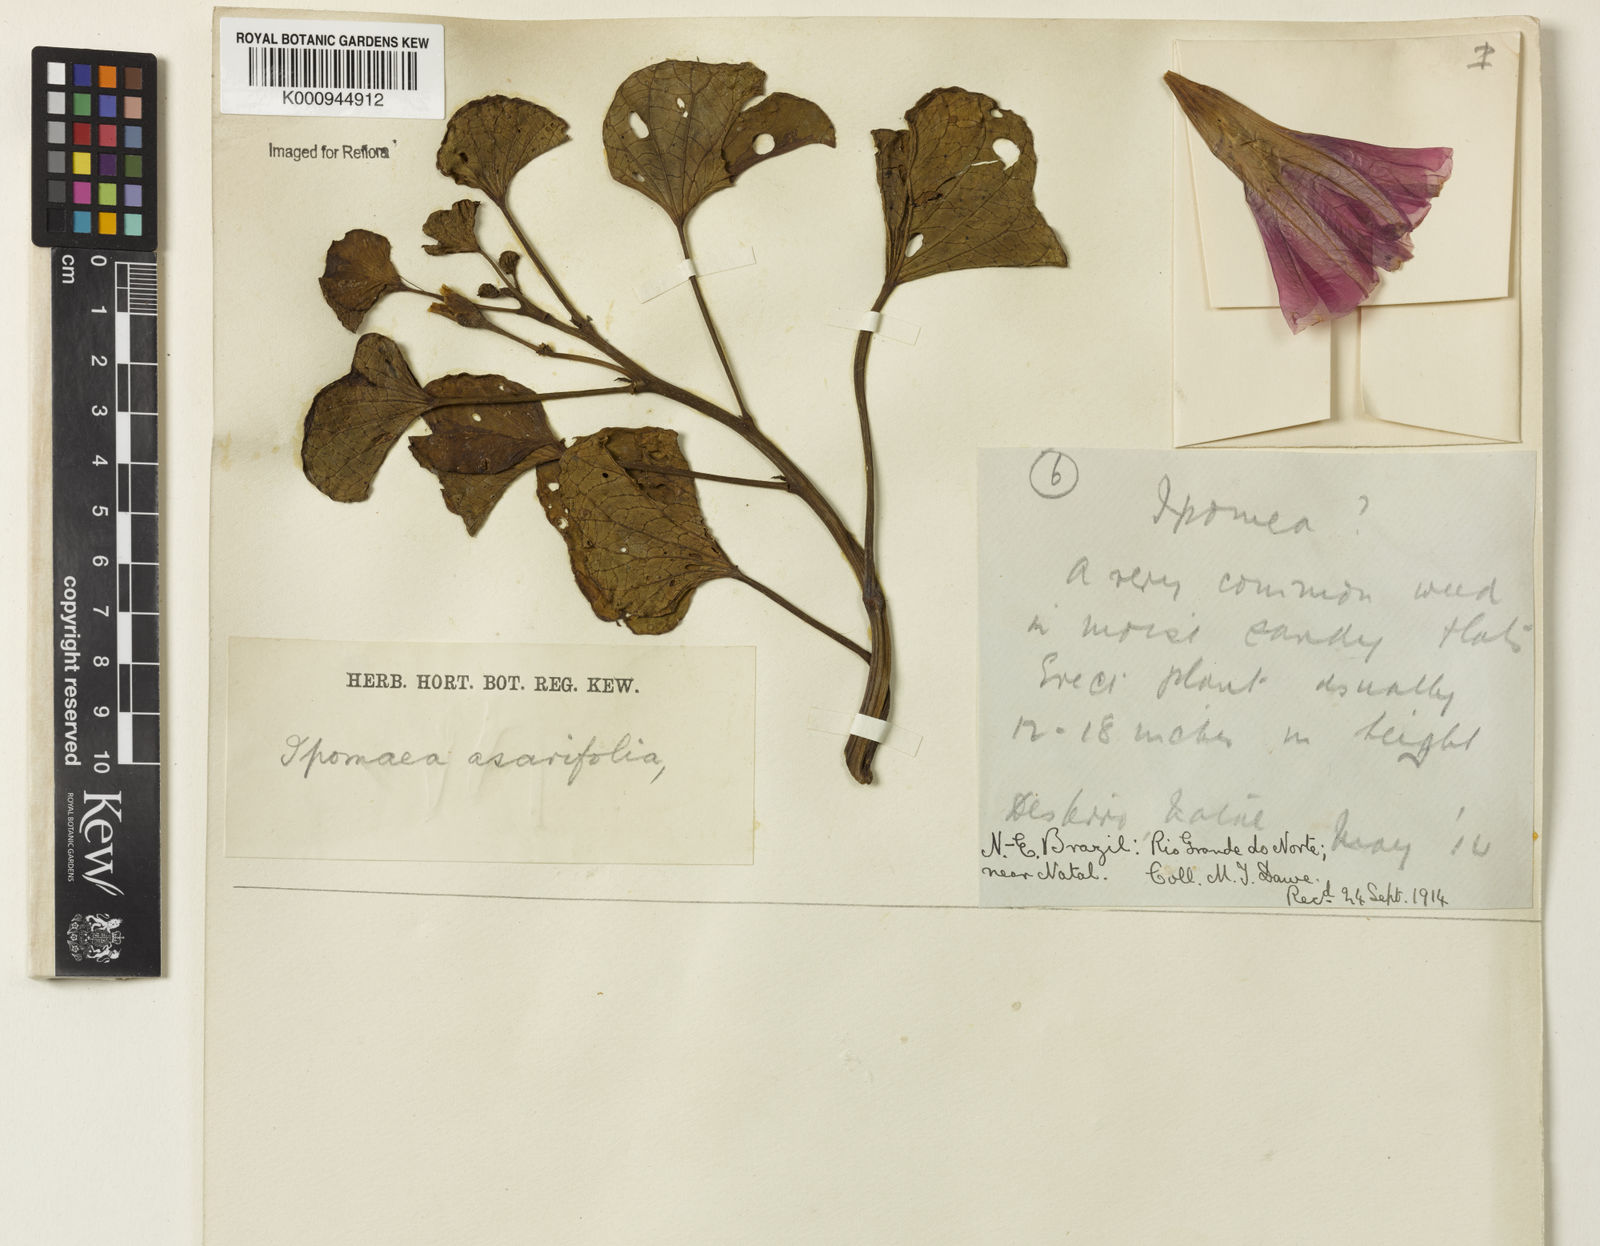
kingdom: Plantae
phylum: Tracheophyta
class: Magnoliopsida
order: Solanales
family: Convolvulaceae
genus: Ipomoea
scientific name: Ipomoea asarifolia
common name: Ginger-leaf morning-glory
